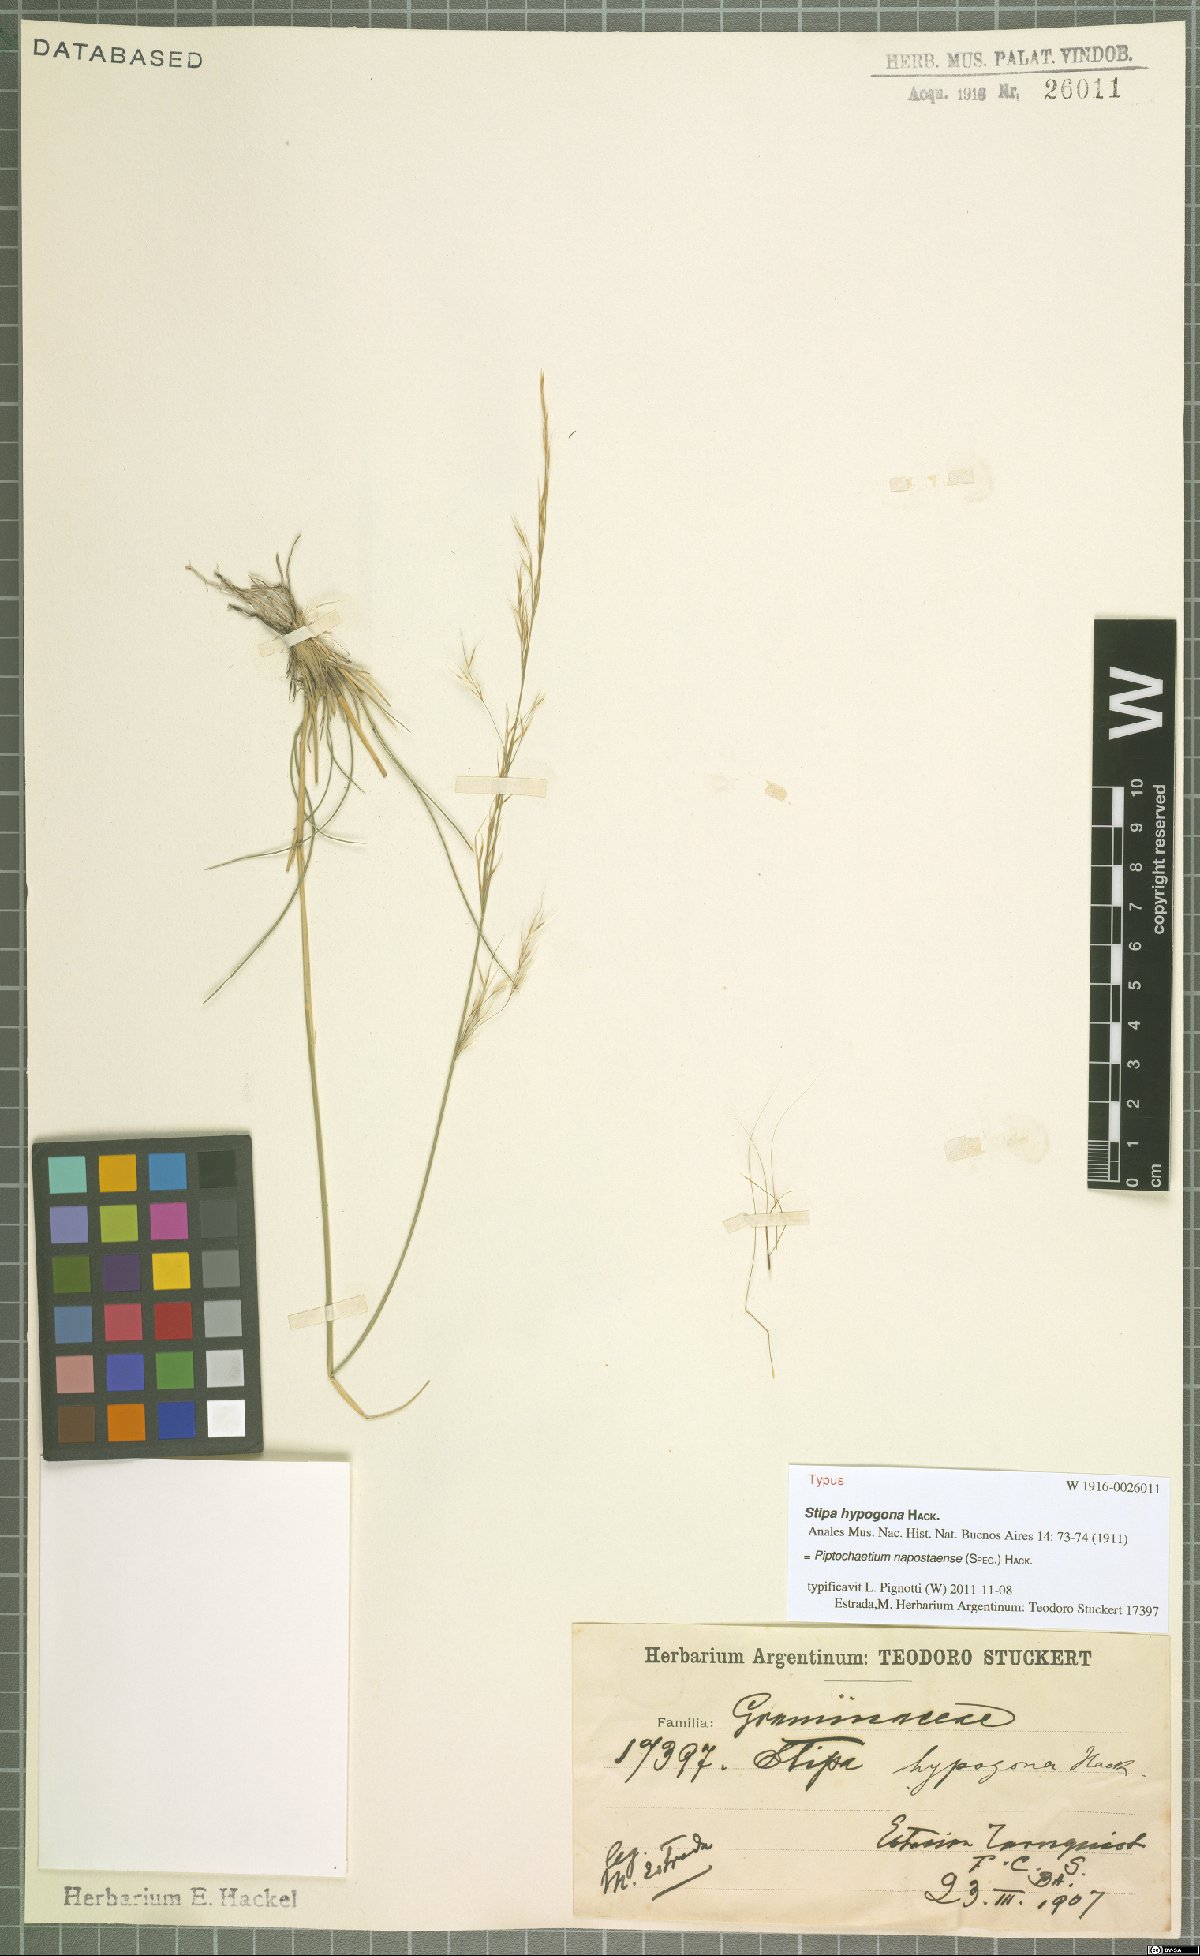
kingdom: Plantae
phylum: Tracheophyta
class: Liliopsida
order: Poales
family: Poaceae
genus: Piptochaetium
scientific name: Piptochaetium napostaense
